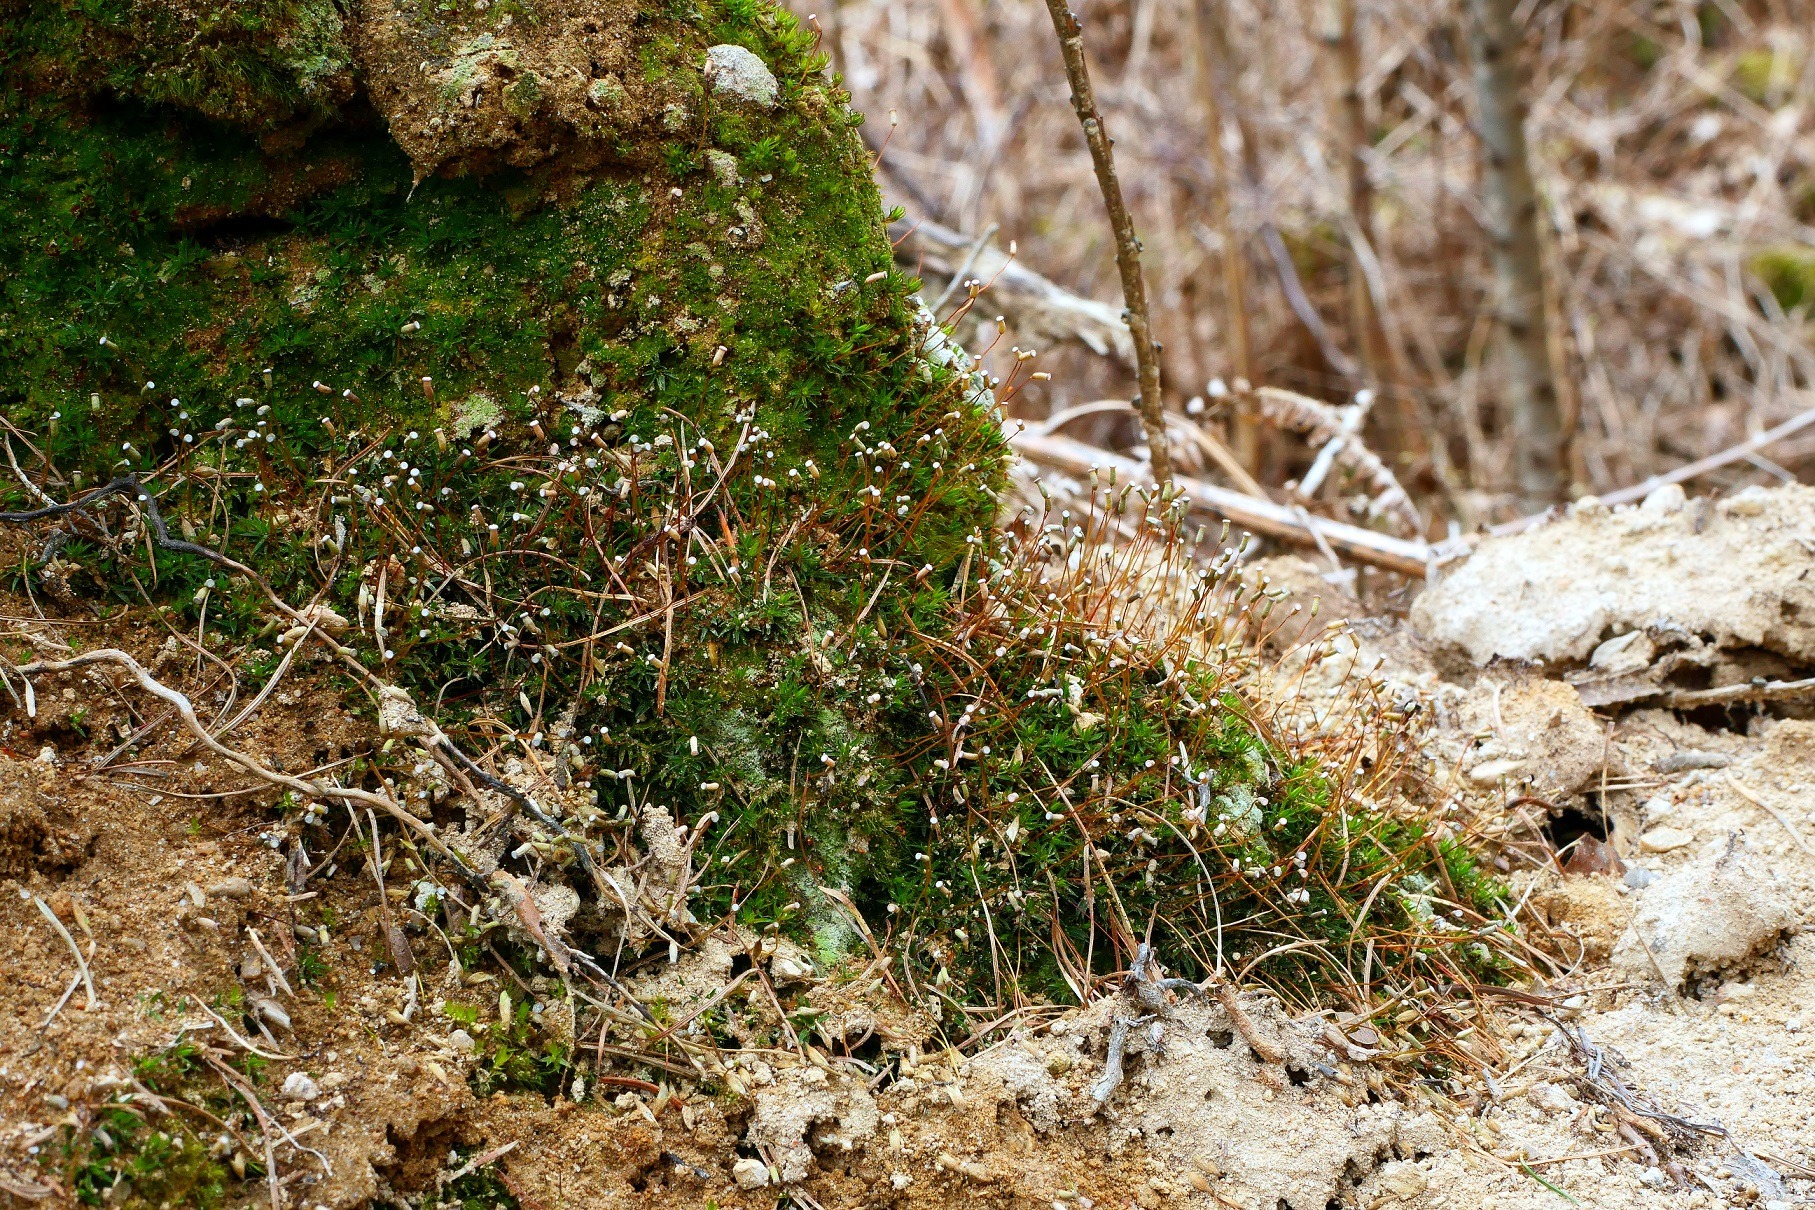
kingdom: Plantae
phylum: Bryophyta
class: Polytrichopsida
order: Polytrichales
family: Polytrichaceae
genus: Pogonatum
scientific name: Pogonatum aloides
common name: Smal urnekapsel
